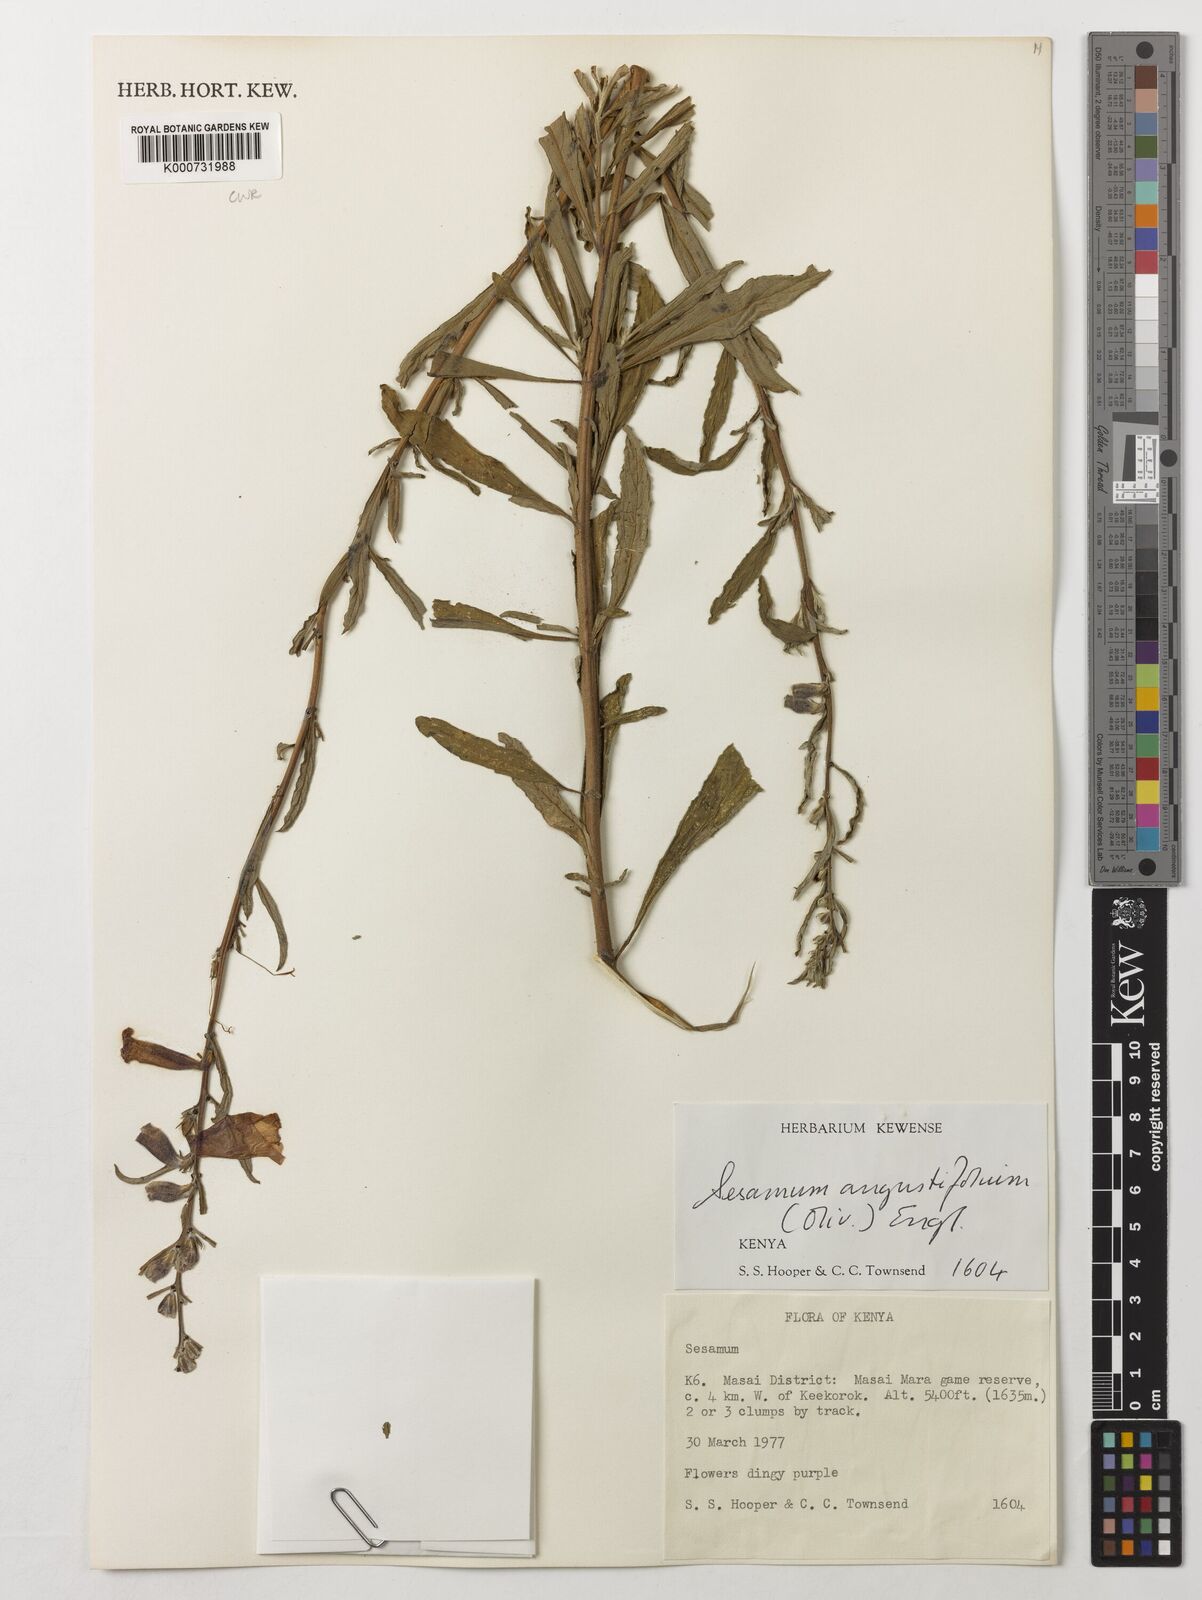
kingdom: Plantae
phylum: Tracheophyta
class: Magnoliopsida
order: Lamiales
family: Pedaliaceae
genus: Sesamum
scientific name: Sesamum angustifolium
